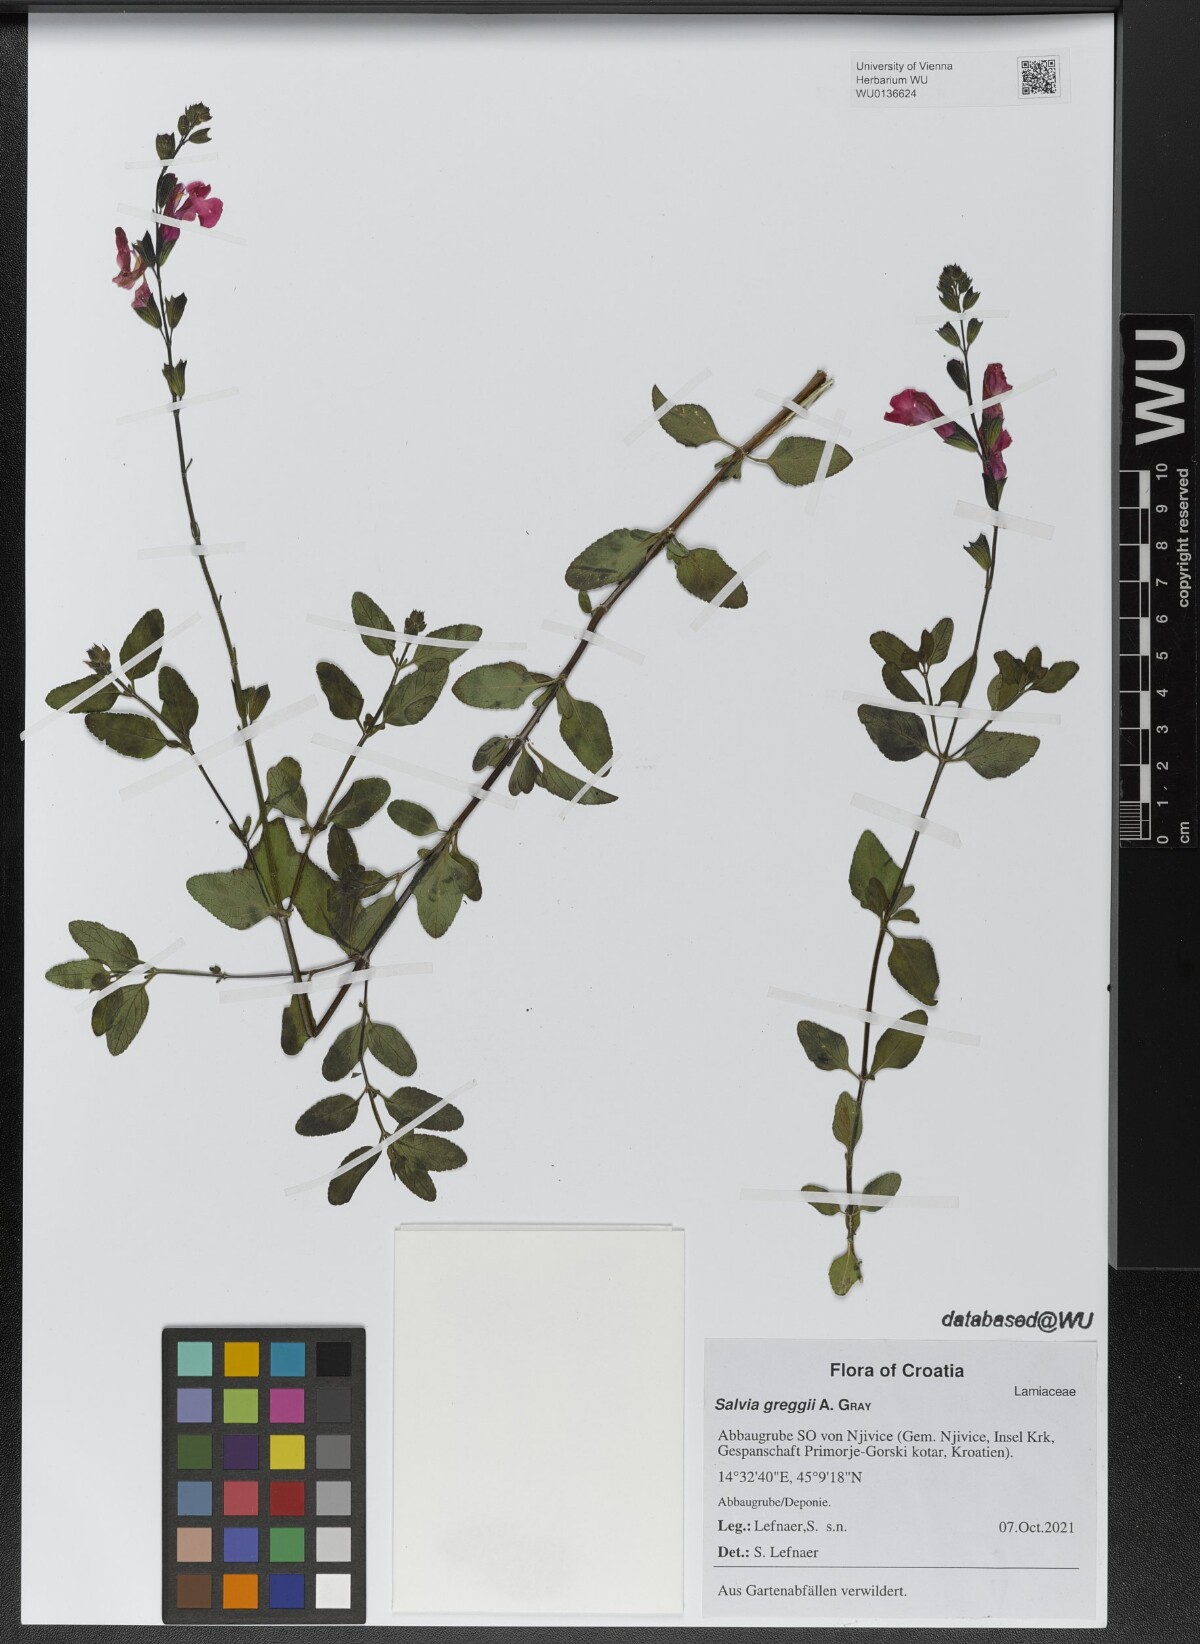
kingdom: Plantae
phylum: Tracheophyta
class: Magnoliopsida
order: Lamiales
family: Lamiaceae
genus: Salvia
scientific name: Salvia greggii
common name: Autumn sage
